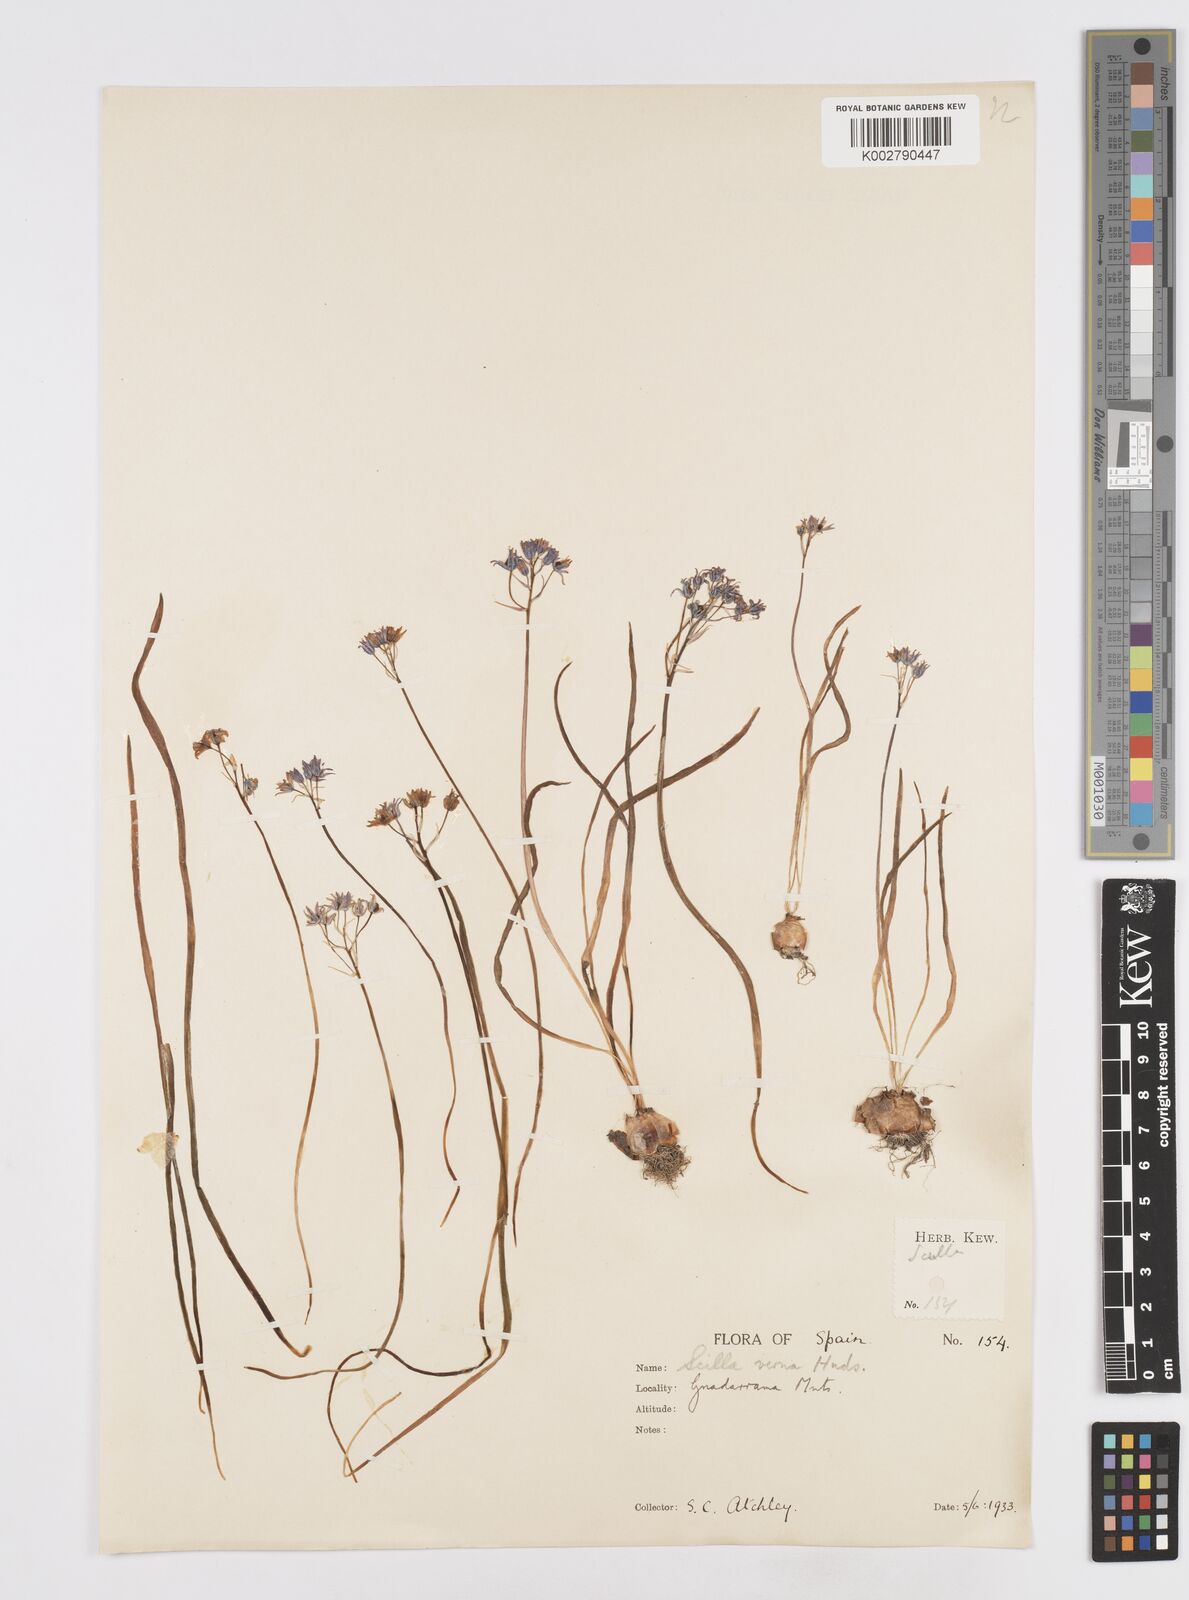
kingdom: Plantae
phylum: Tracheophyta
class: Liliopsida
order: Asparagales
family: Asparagaceae
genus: Scilla
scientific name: Scilla verna
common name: Spring squill
